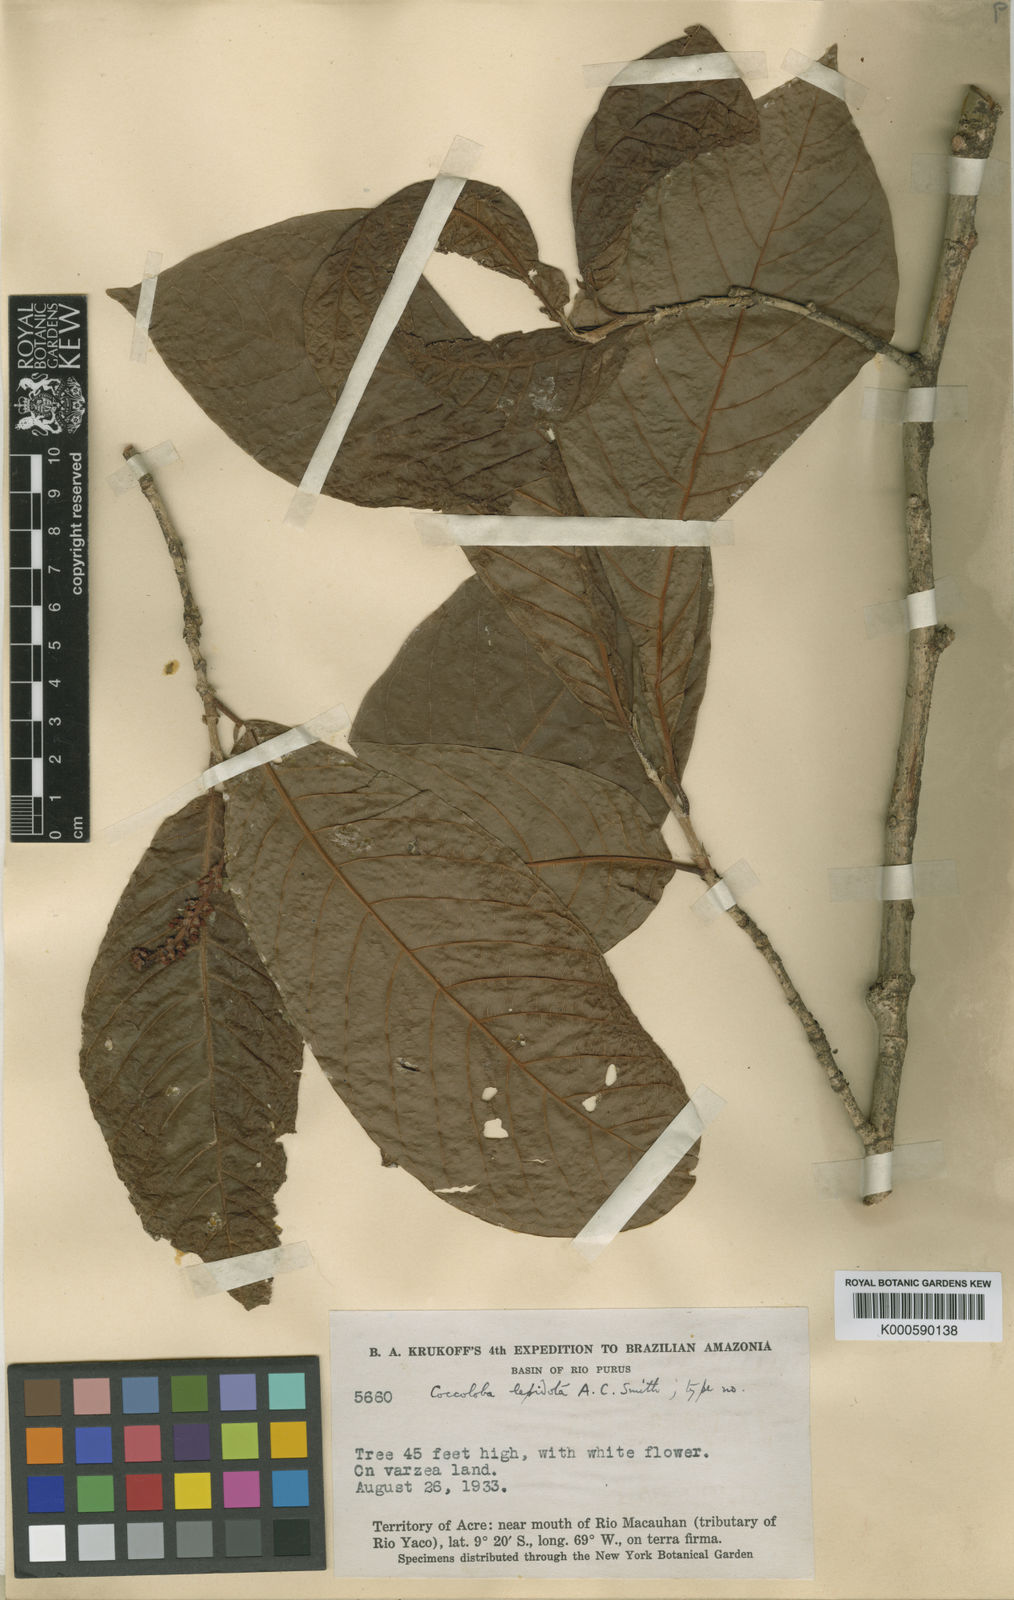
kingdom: Plantae
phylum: Tracheophyta
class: Magnoliopsida
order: Caryophyllales
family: Polygonaceae
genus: Coccoloba
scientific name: Coccoloba lepidota
